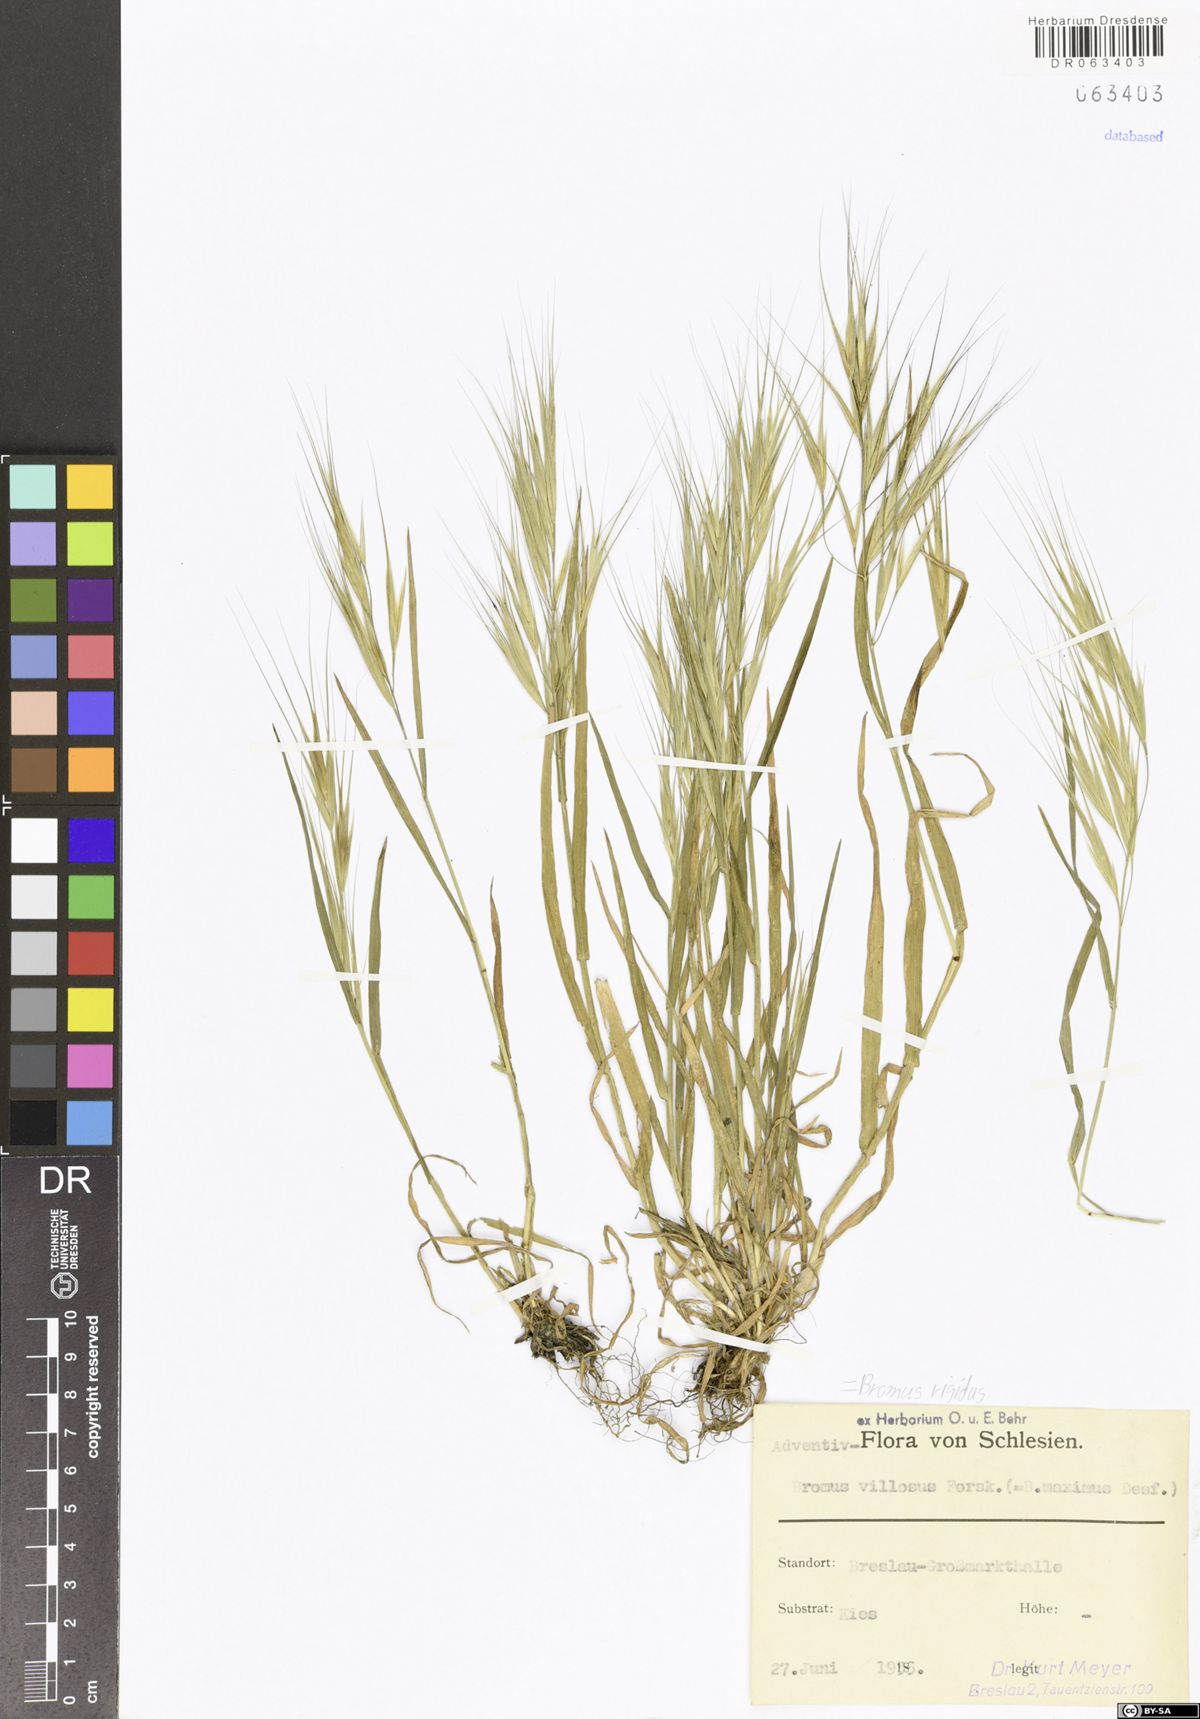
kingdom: Plantae
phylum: Tracheophyta
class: Liliopsida
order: Poales
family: Poaceae
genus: Bromus
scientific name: Bromus rigidus
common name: Ripgut brome
